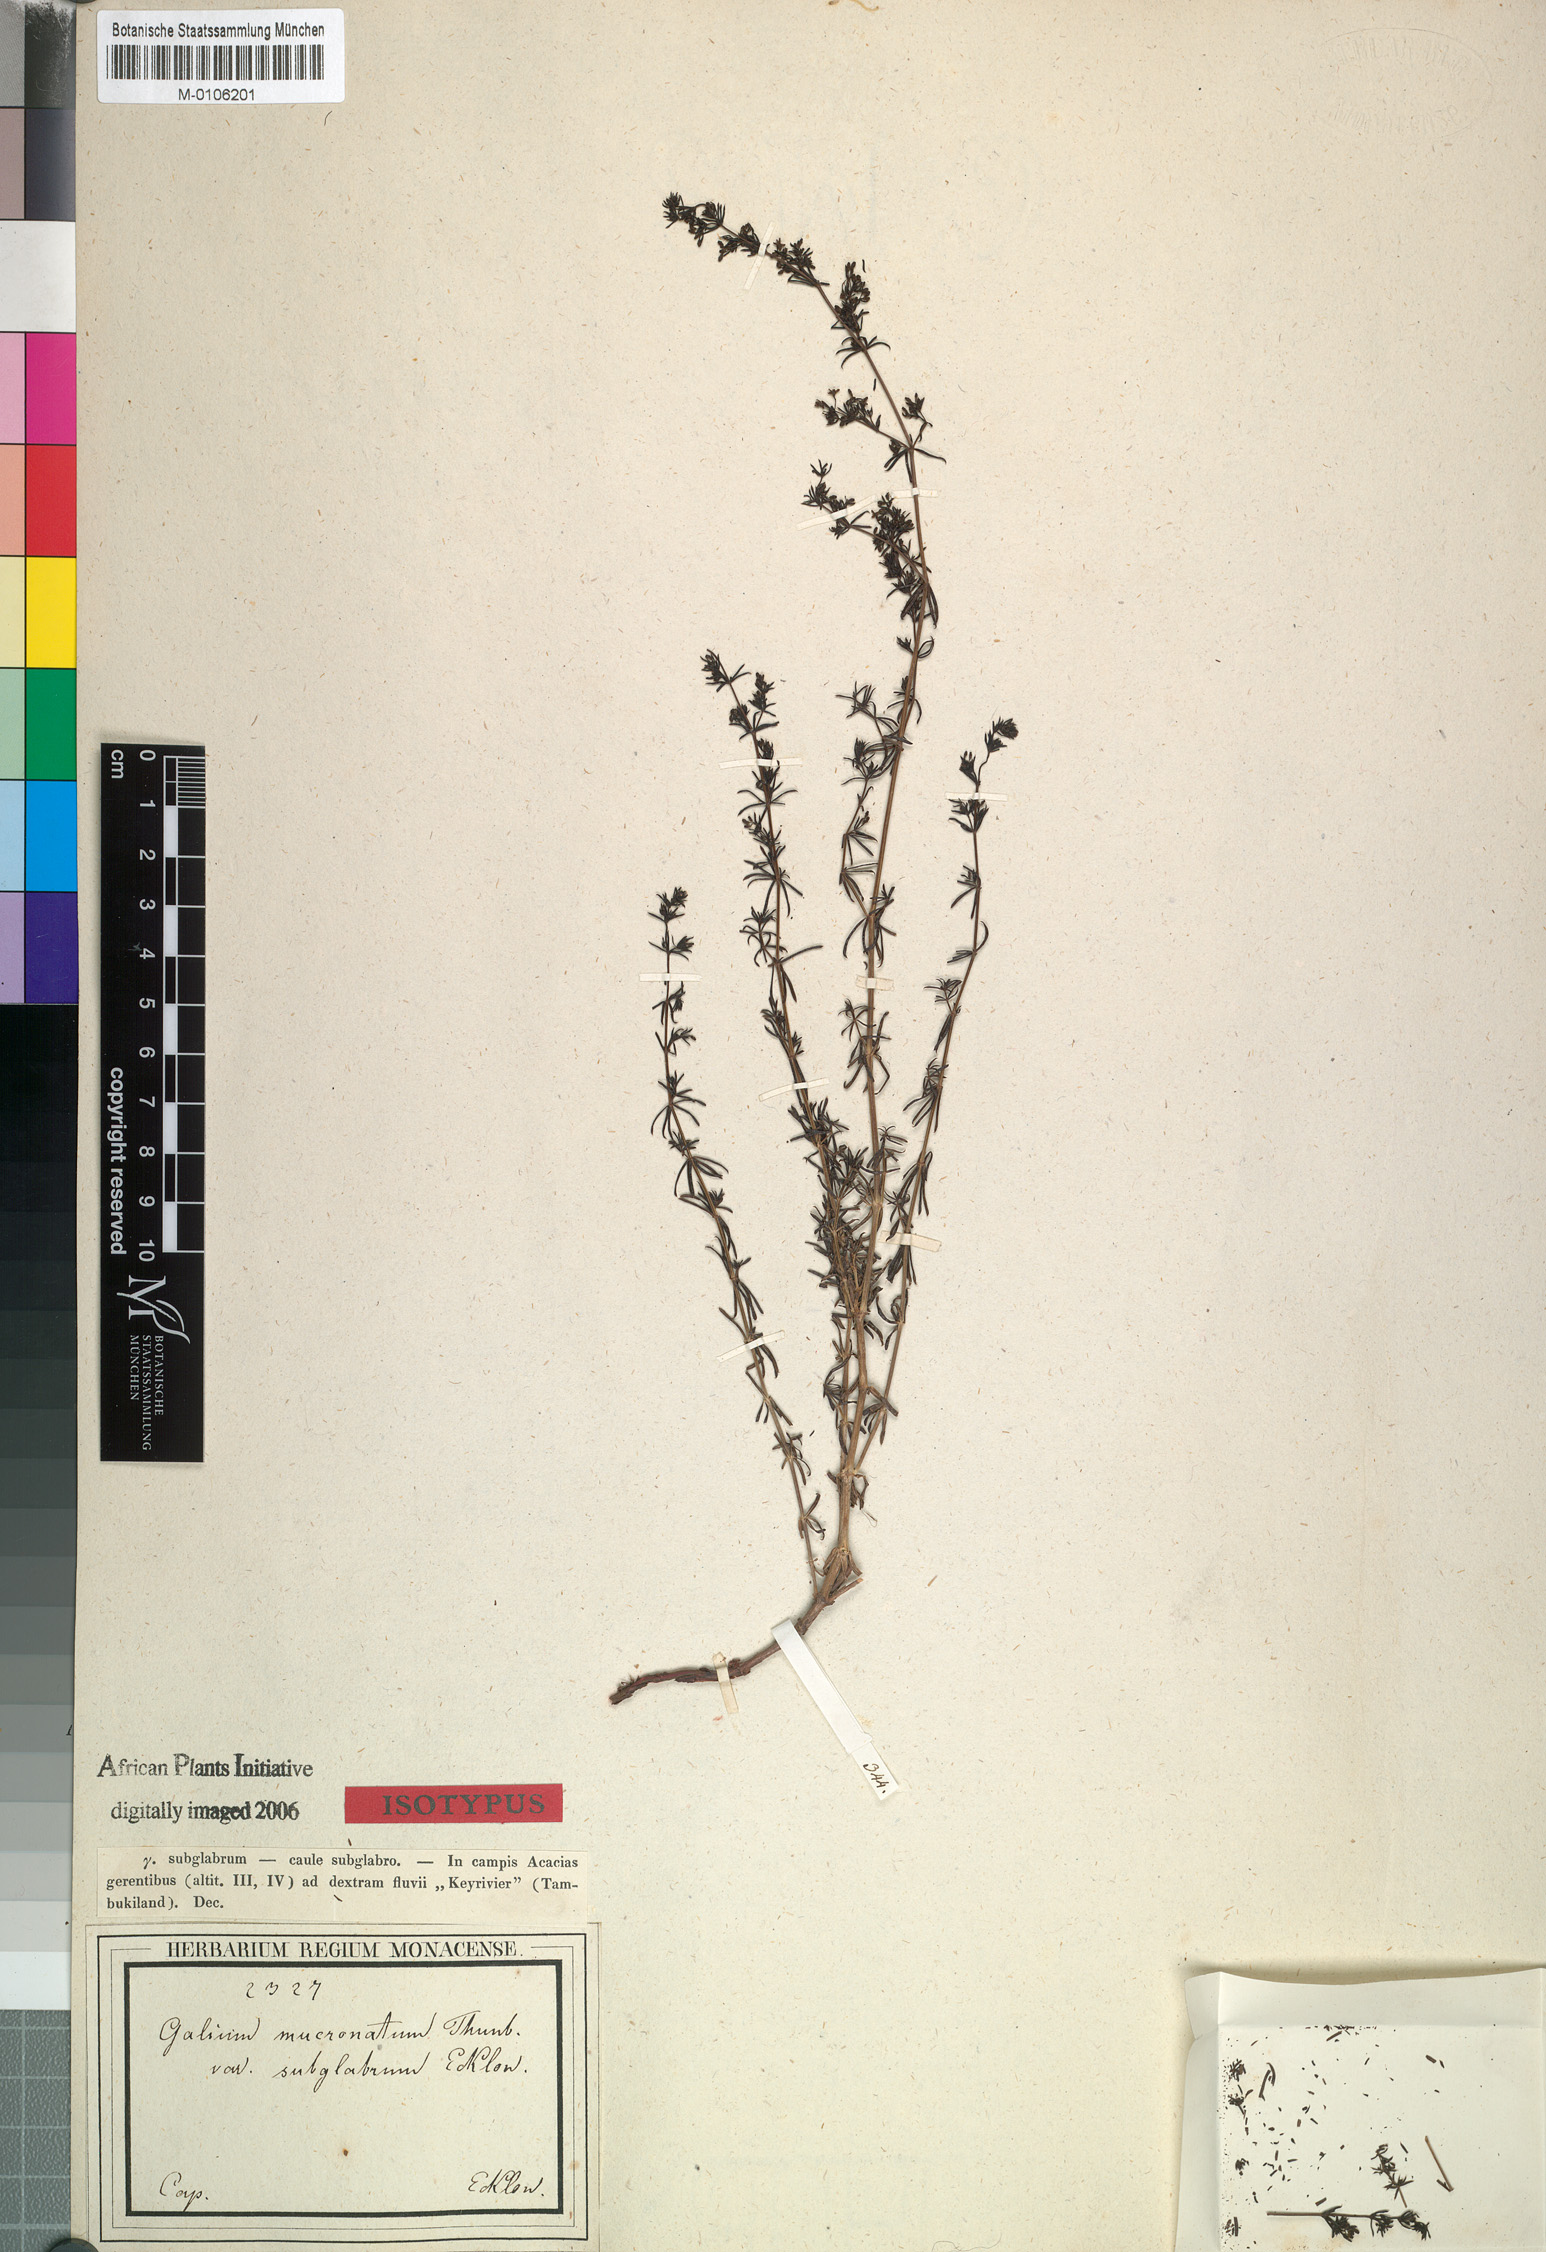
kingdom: Plantae
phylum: Tracheophyta
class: Magnoliopsida
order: Gentianales
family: Rubiaceae
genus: Galium
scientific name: Galium capense
